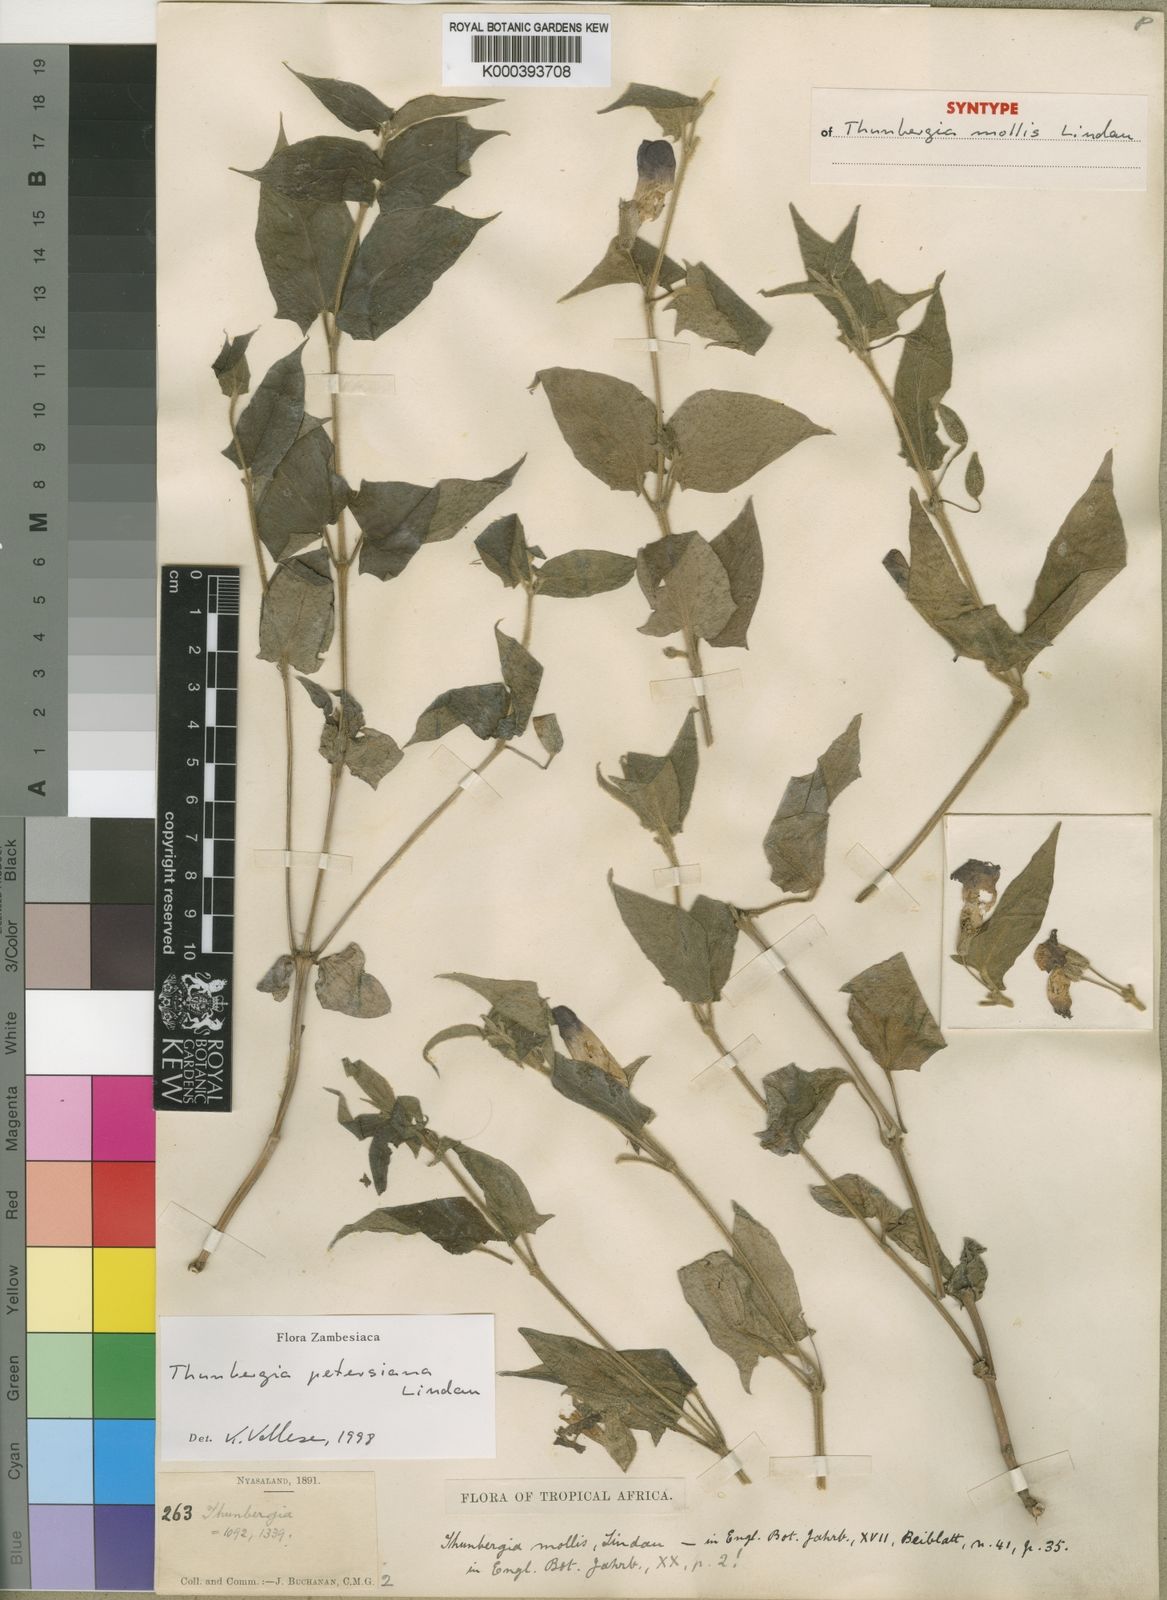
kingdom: Plantae
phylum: Tracheophyta
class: Magnoliopsida
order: Lamiales
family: Acanthaceae
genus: Thunbergia
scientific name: Thunbergia petersiana
